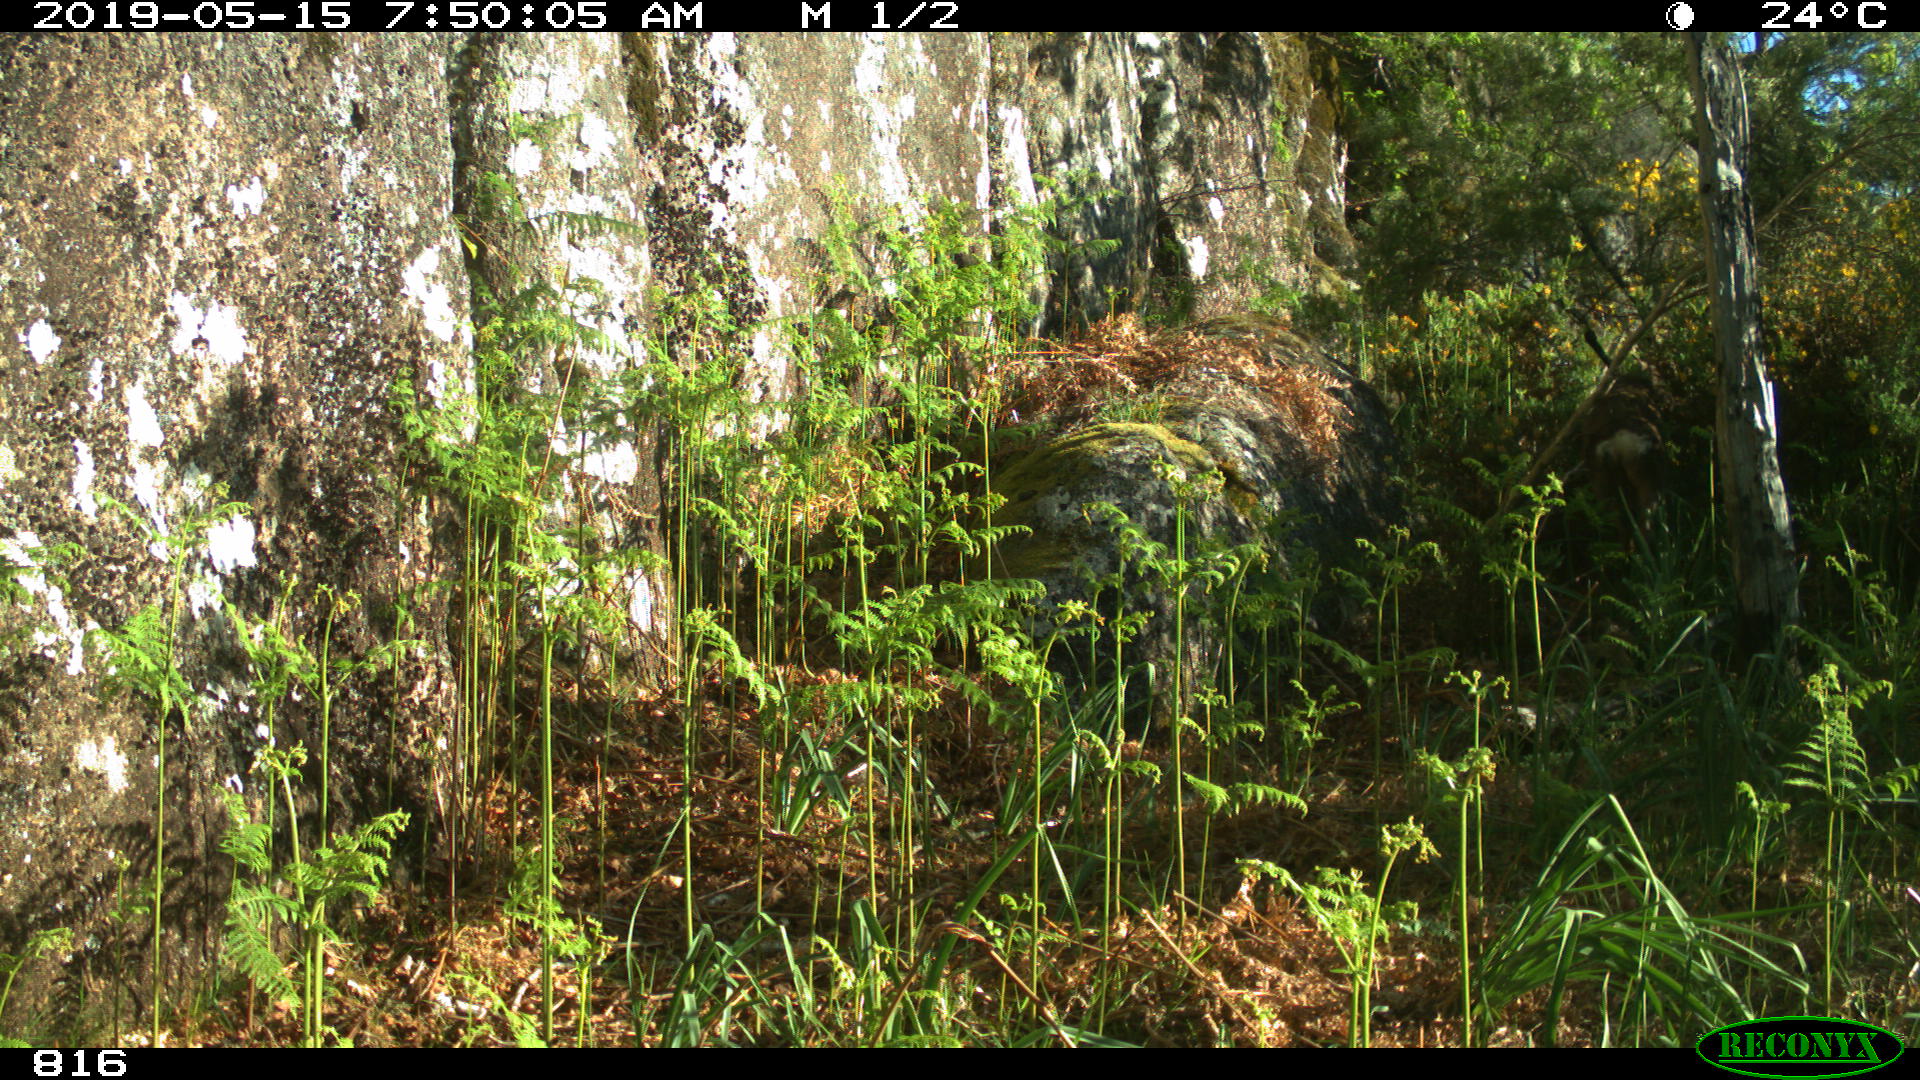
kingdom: Animalia
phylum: Chordata
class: Mammalia
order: Artiodactyla
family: Cervidae
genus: Capreolus
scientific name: Capreolus capreolus
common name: Western roe deer
